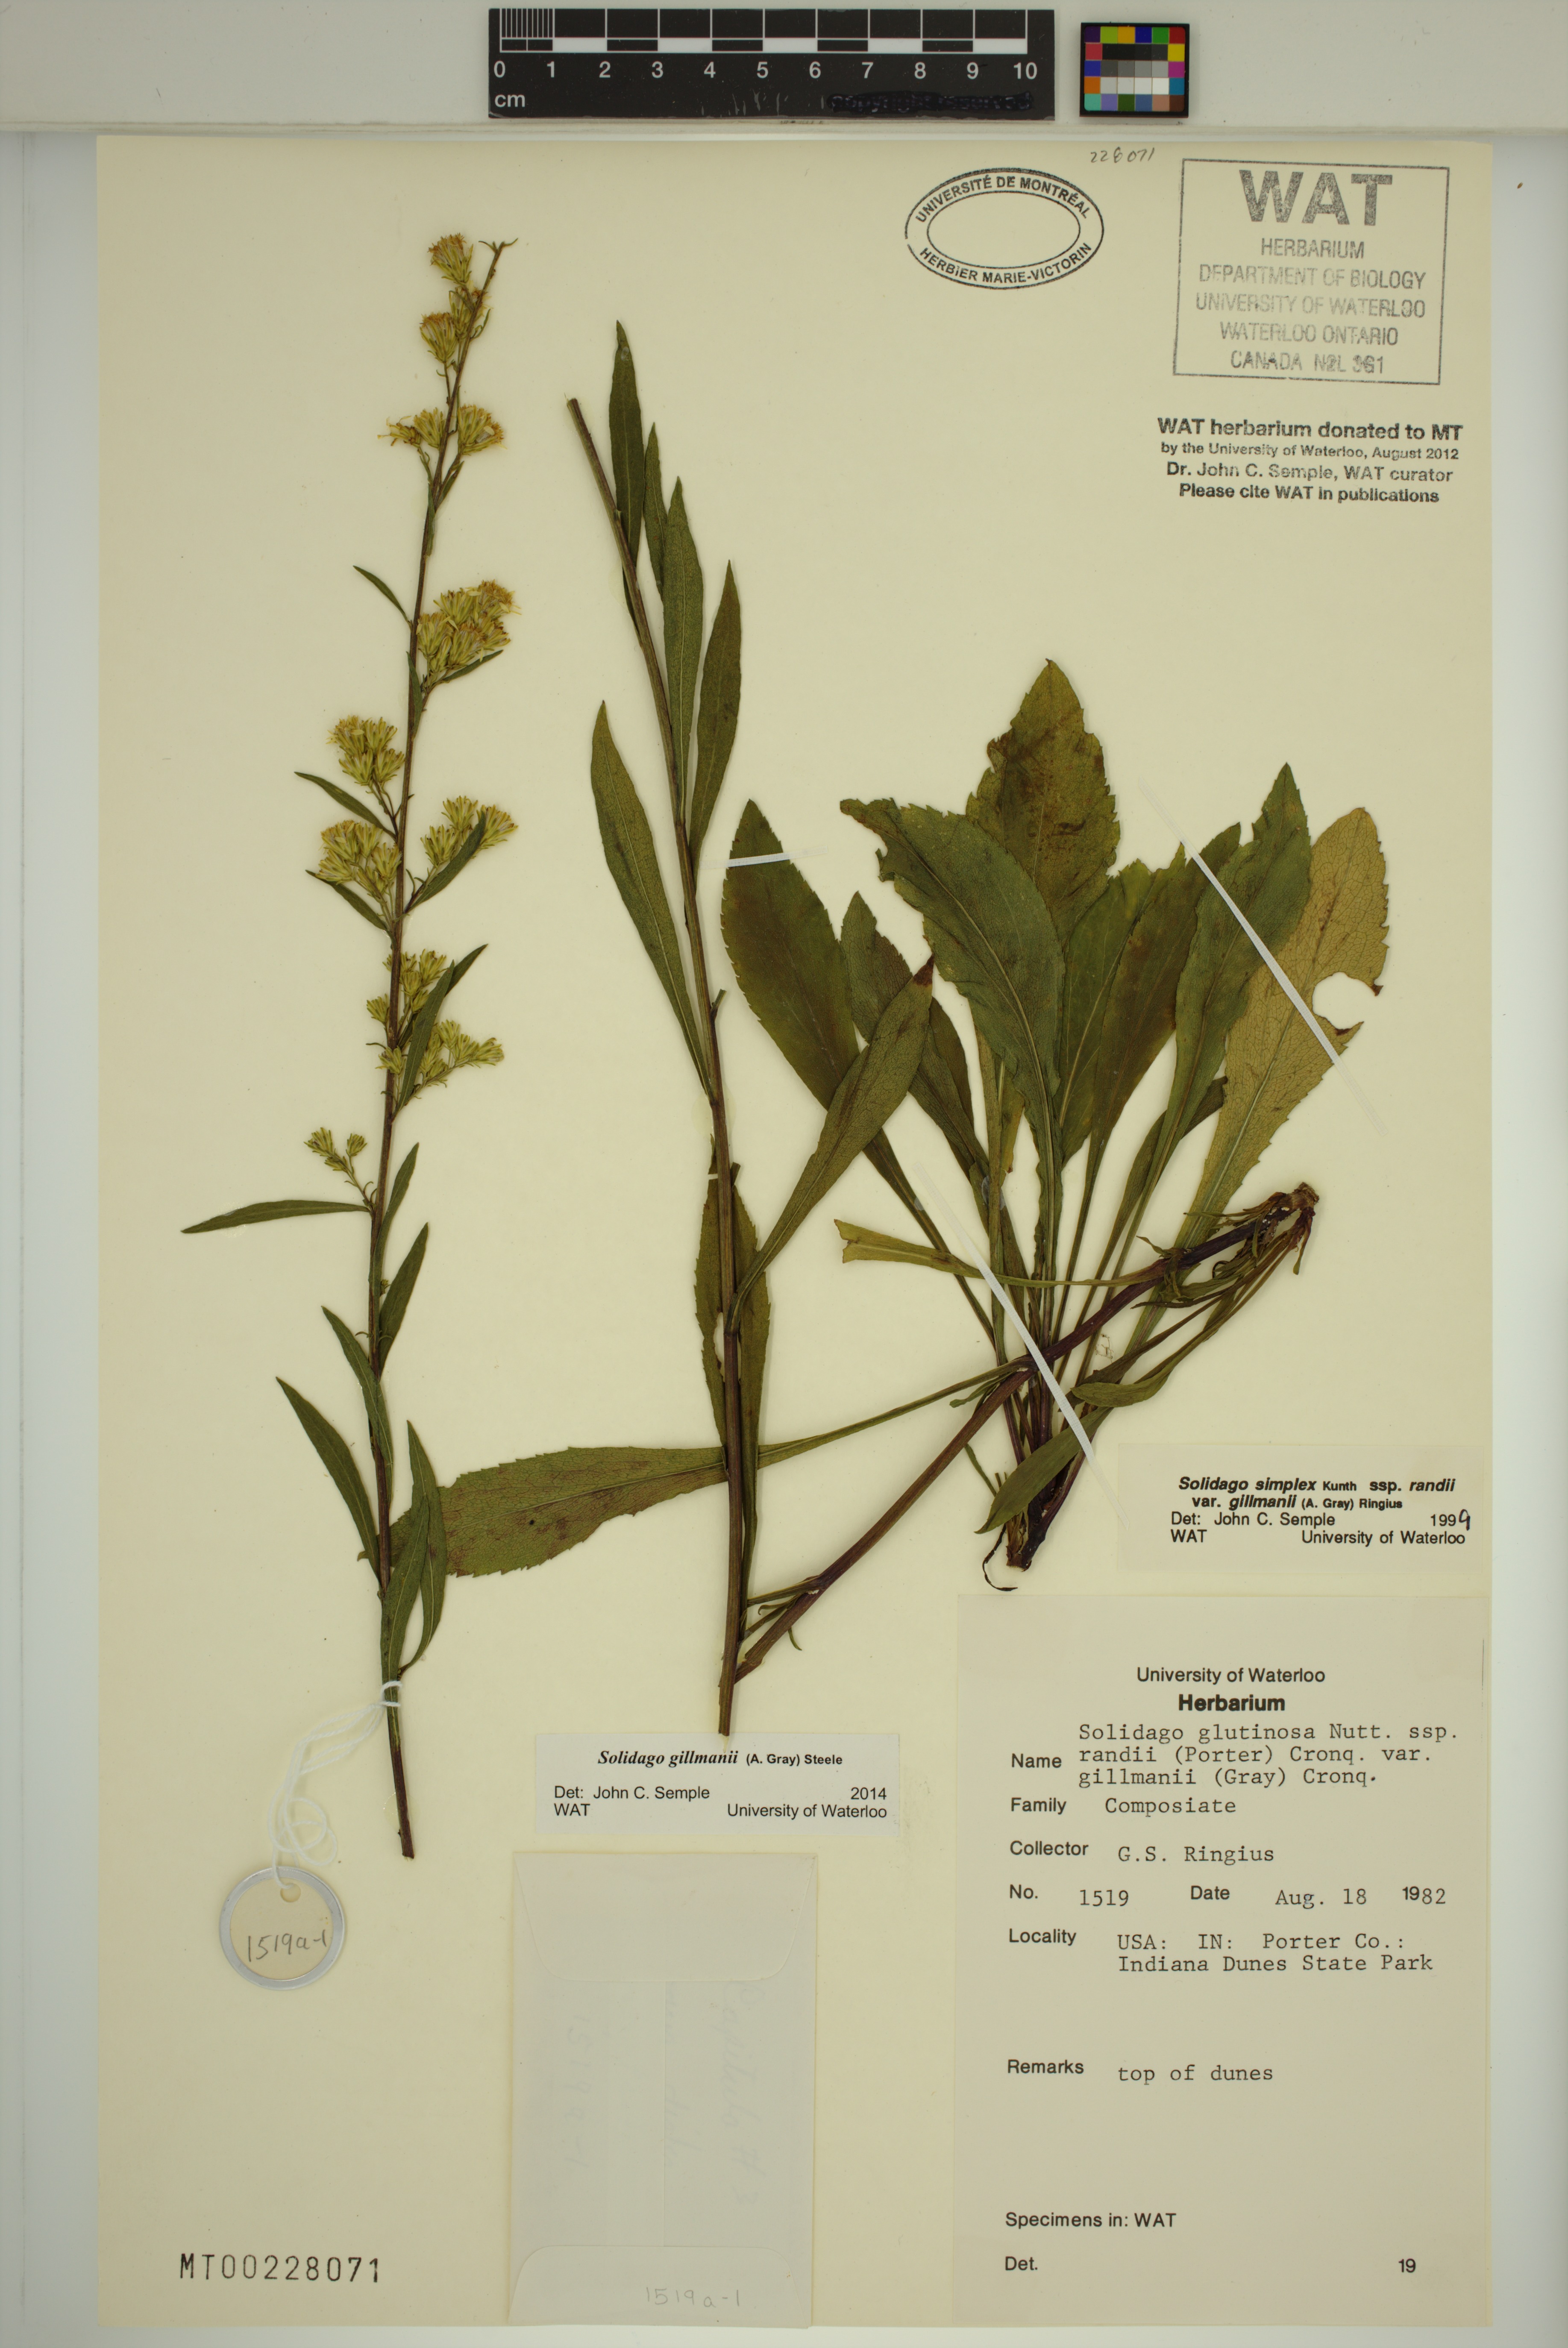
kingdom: Plantae
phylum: Tracheophyta
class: Magnoliopsida
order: Asterales
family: Asteraceae
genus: Solidago
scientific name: Solidago gillmanii
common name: Gillman's goldenrod
